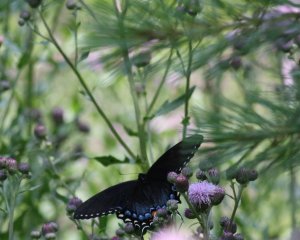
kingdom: Animalia
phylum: Arthropoda
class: Insecta
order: Lepidoptera
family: Papilionidae
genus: Pterourus
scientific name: Pterourus glaucus
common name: Eastern Tiger Swallowtail
